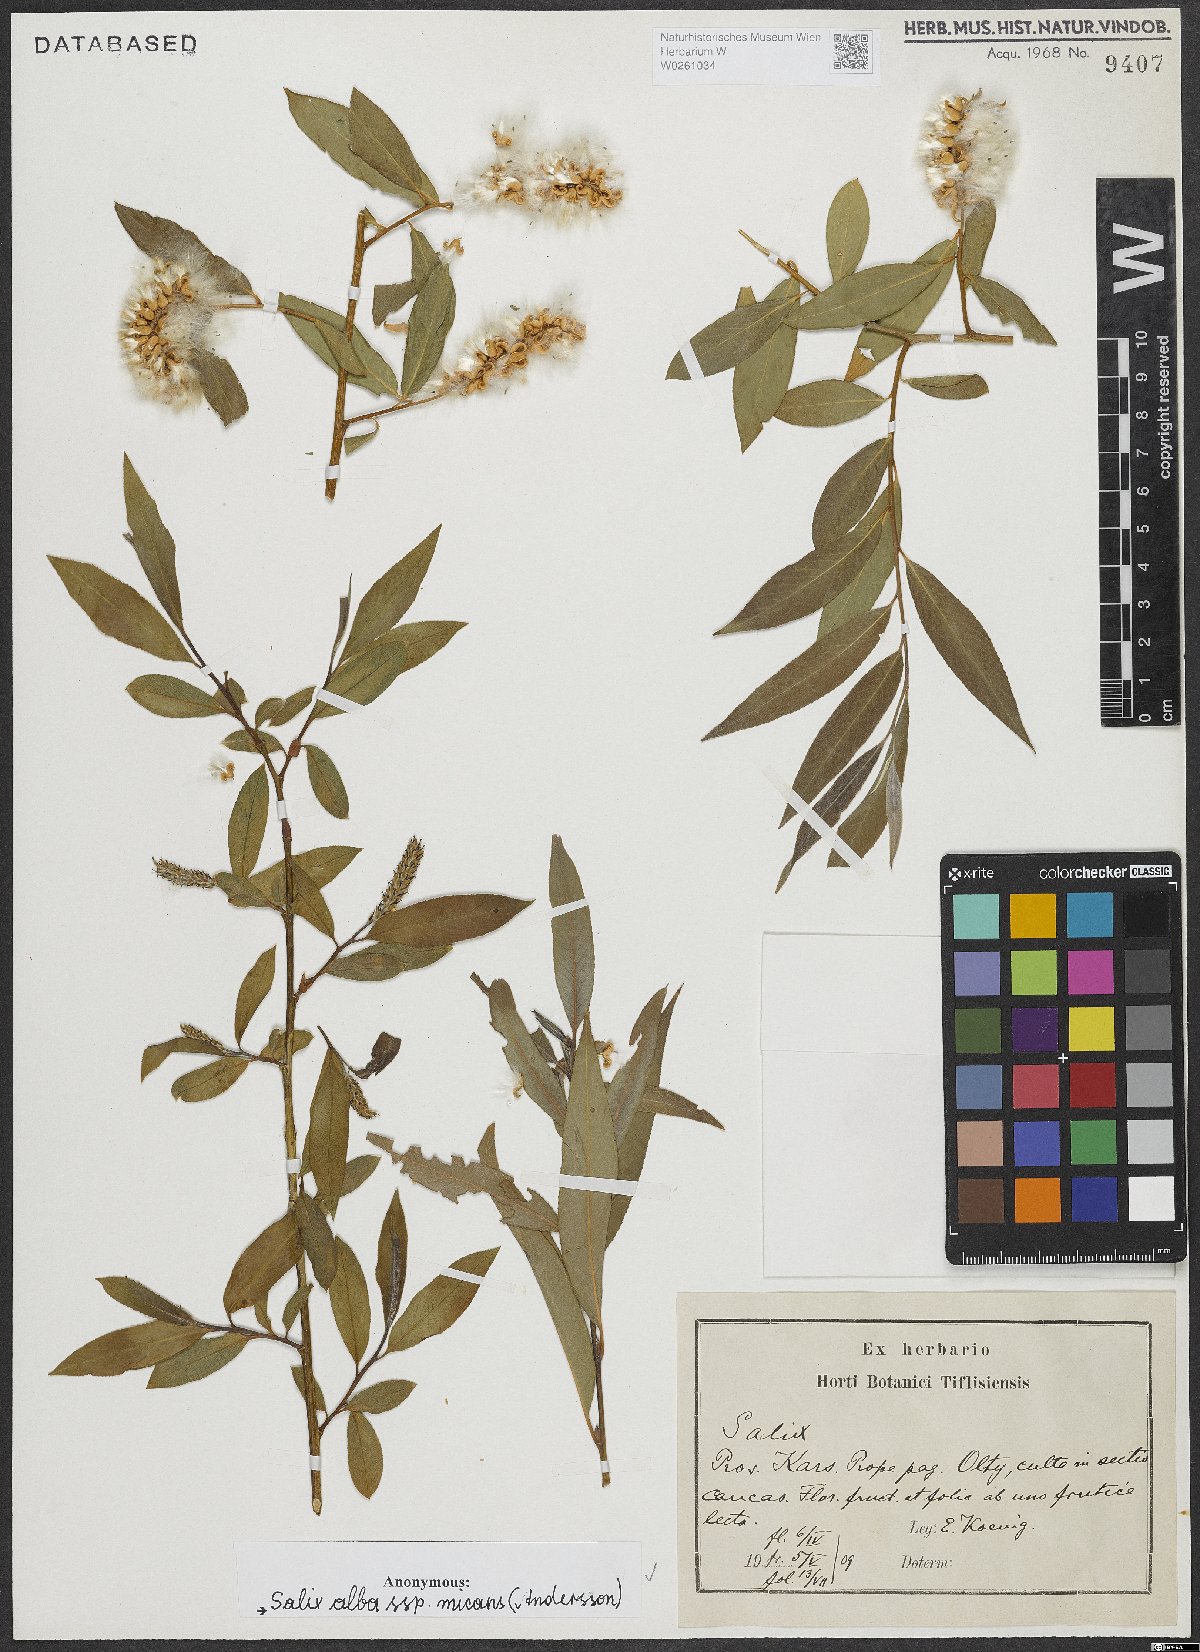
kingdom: Plantae
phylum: Tracheophyta
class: Magnoliopsida
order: Malpighiales
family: Salicaceae
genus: Salix
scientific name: Salix alba
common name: White willow
